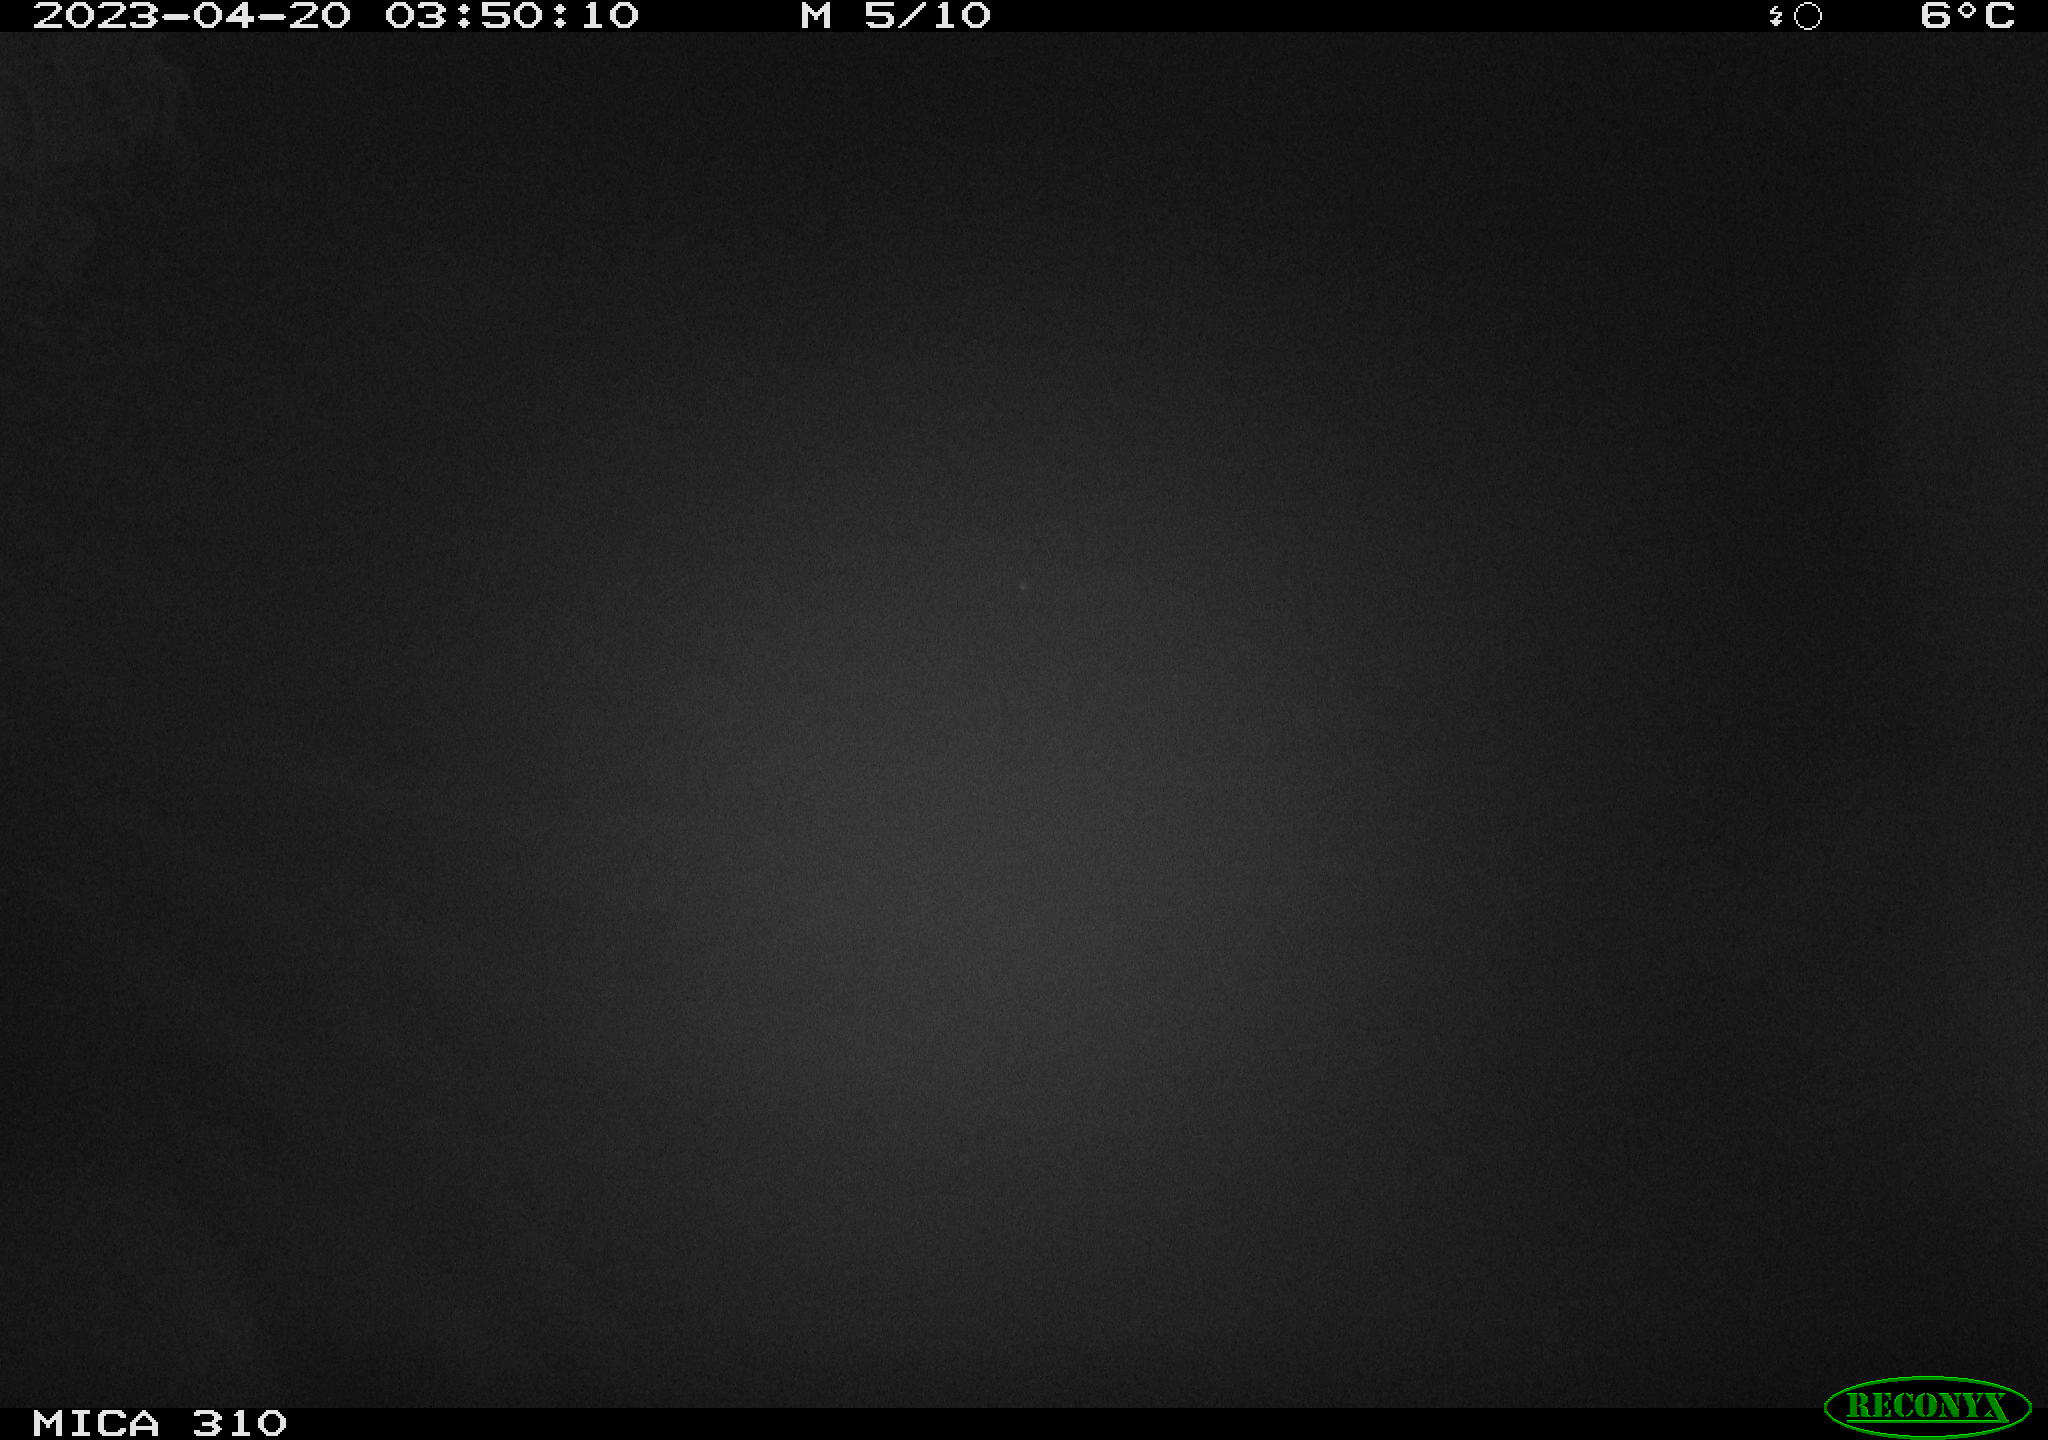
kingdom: Animalia
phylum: Chordata
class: Aves
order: Anseriformes
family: Anatidae
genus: Anas
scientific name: Anas
